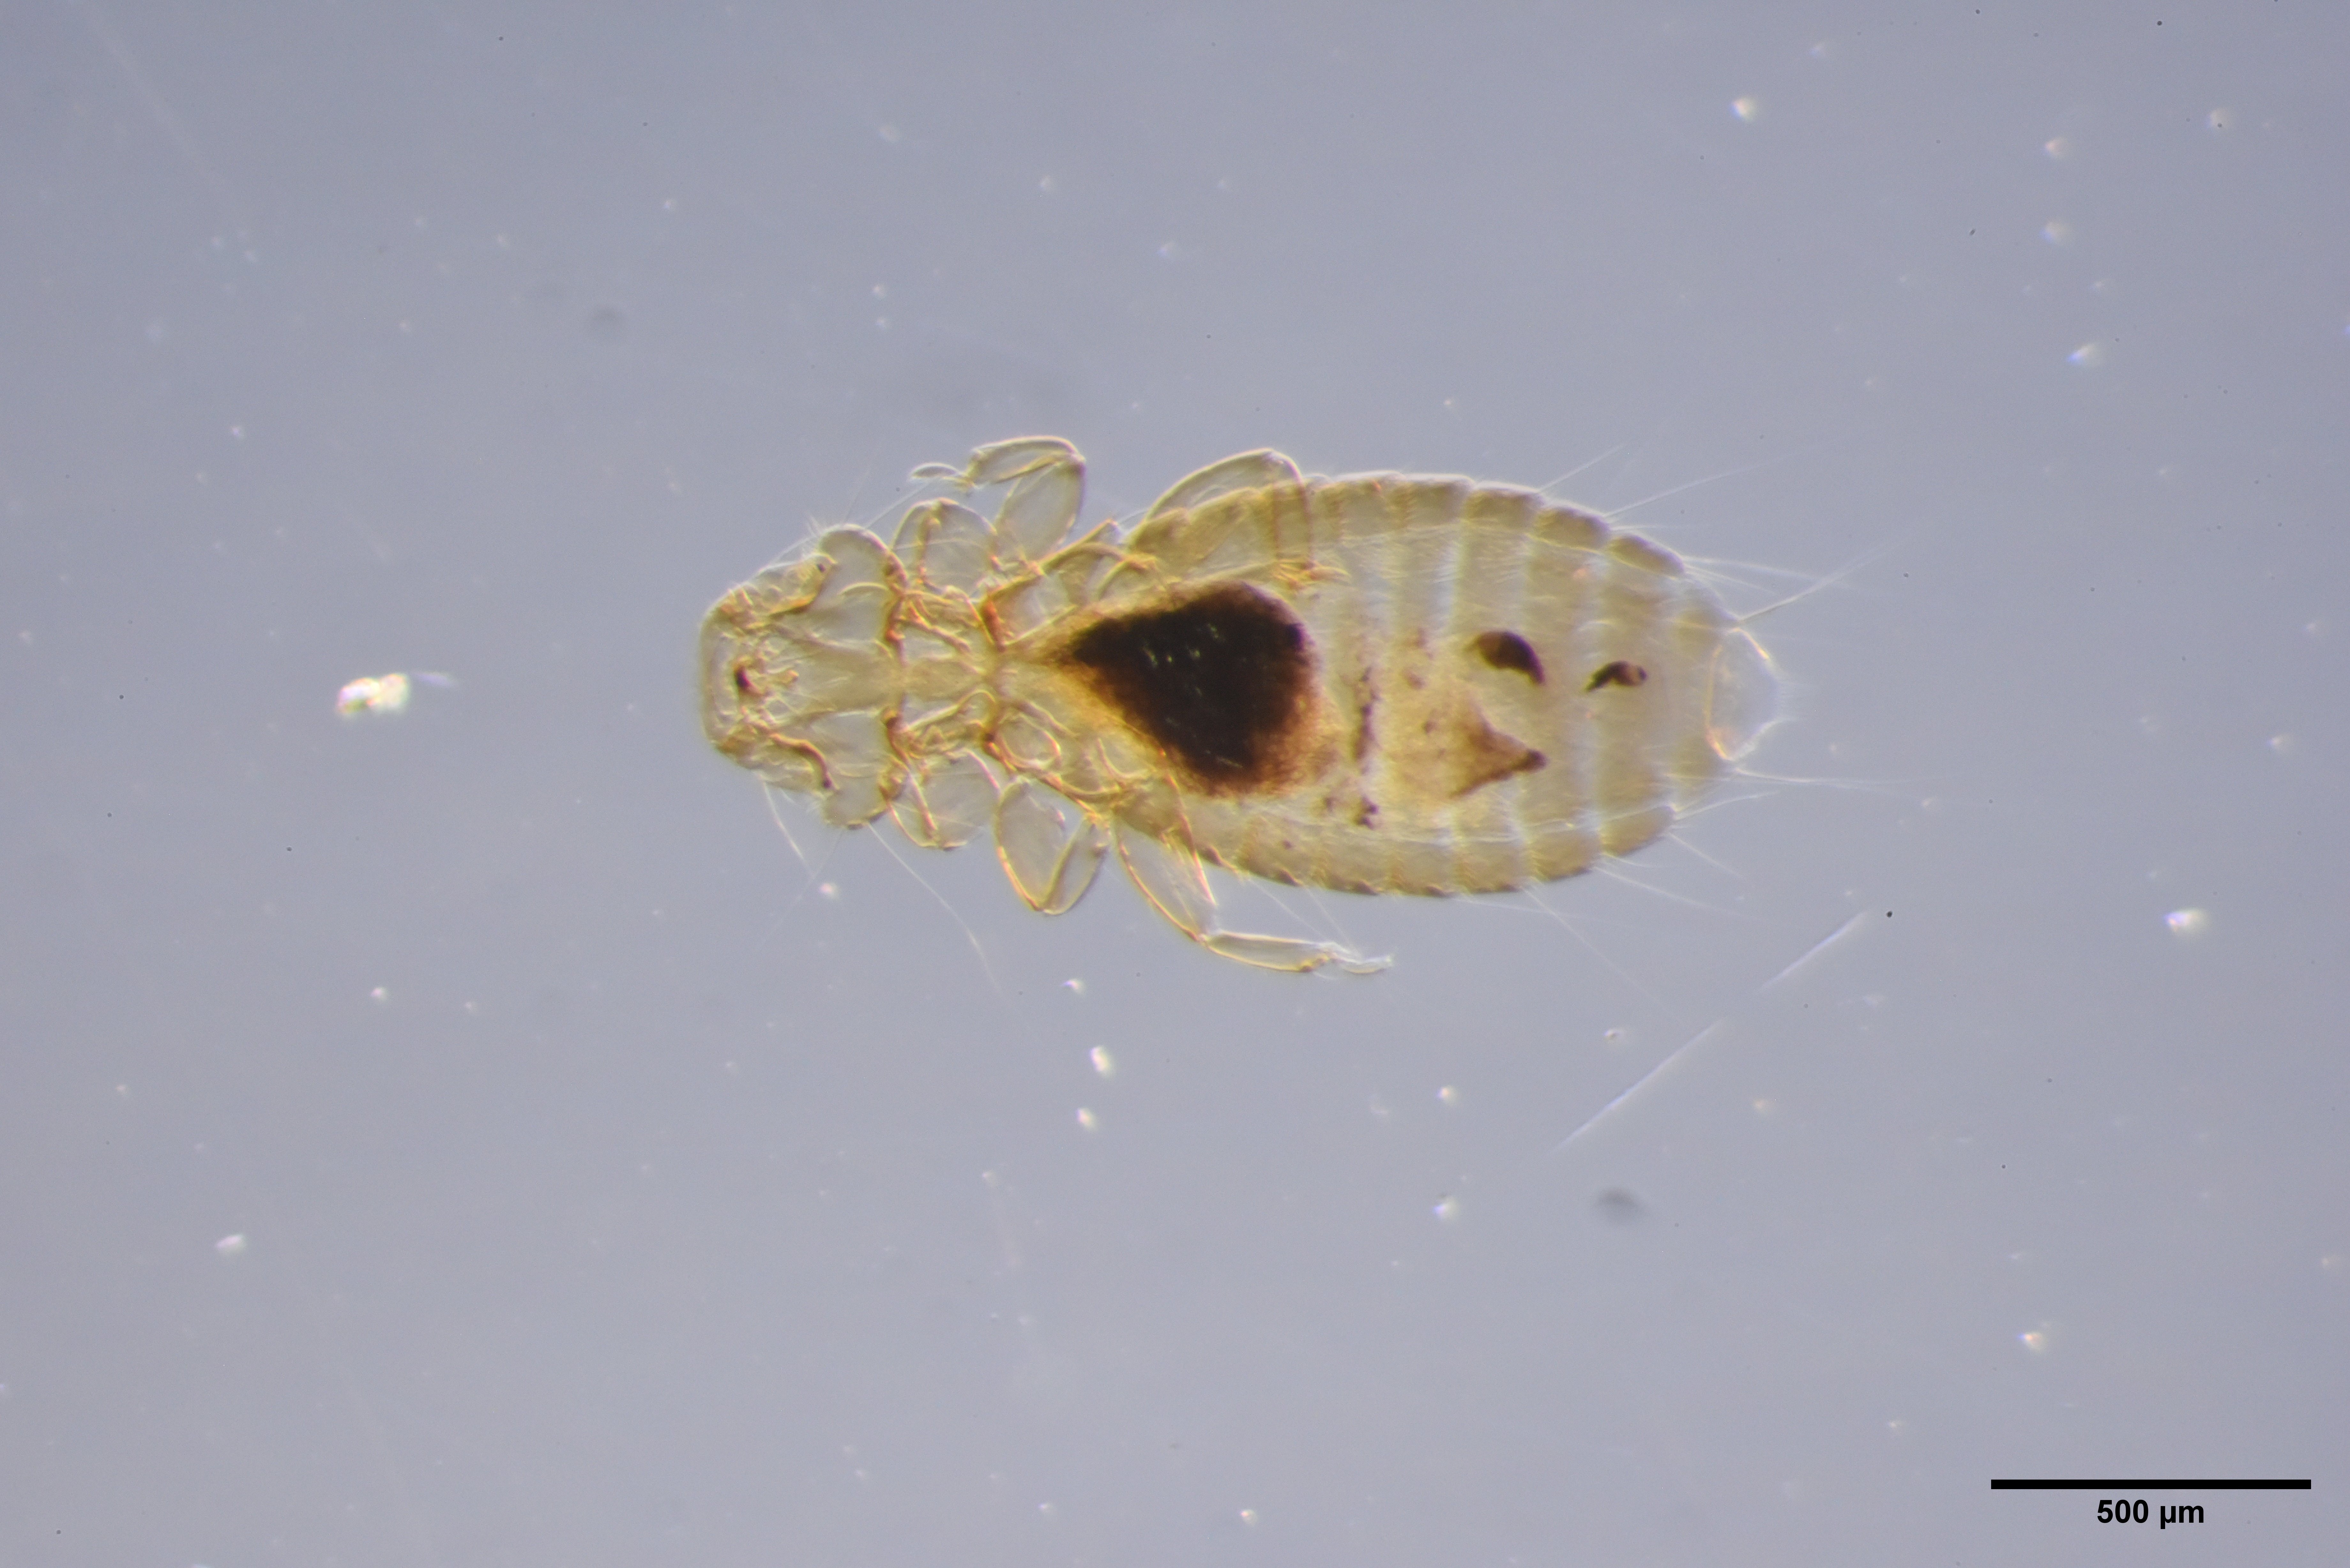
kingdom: Animalia
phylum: Arthropoda
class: Insecta
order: Psocodea
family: Menoponidae
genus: Myrsidea
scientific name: Myrsidea latifrons
